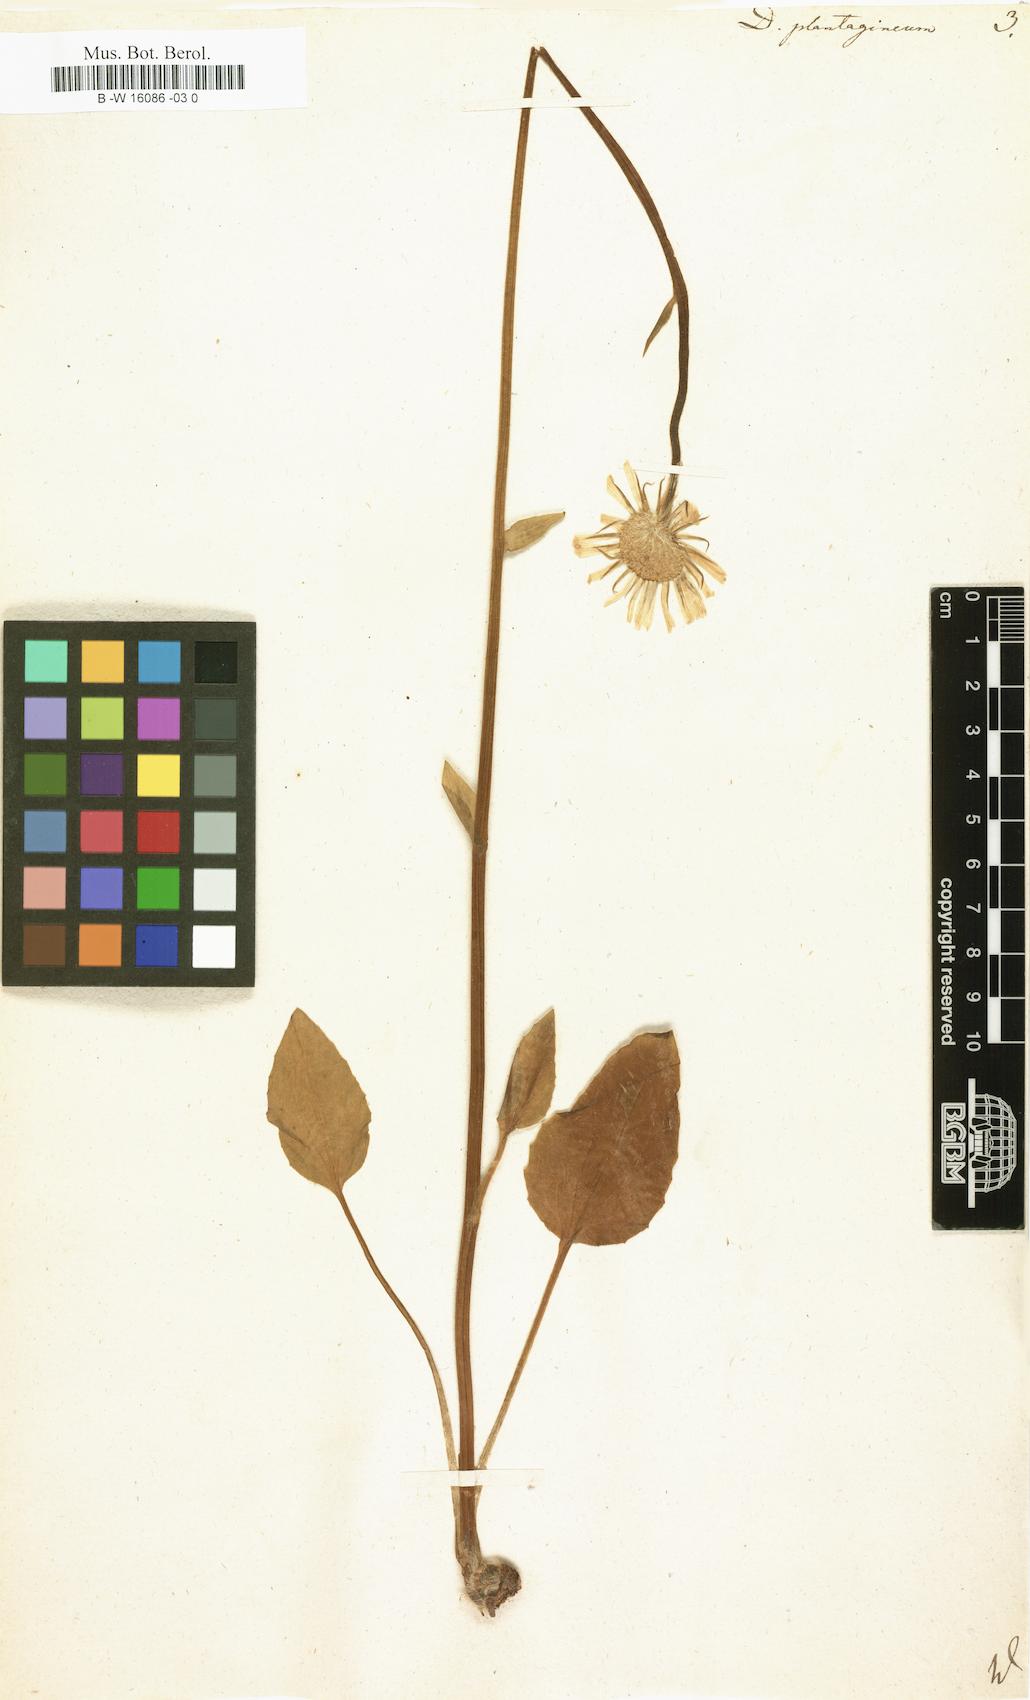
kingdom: Plantae
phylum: Tracheophyta
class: Magnoliopsida
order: Asterales
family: Asteraceae
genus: Doronicum
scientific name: Doronicum plantagineum
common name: Plantain-leaved leopard's-bane
